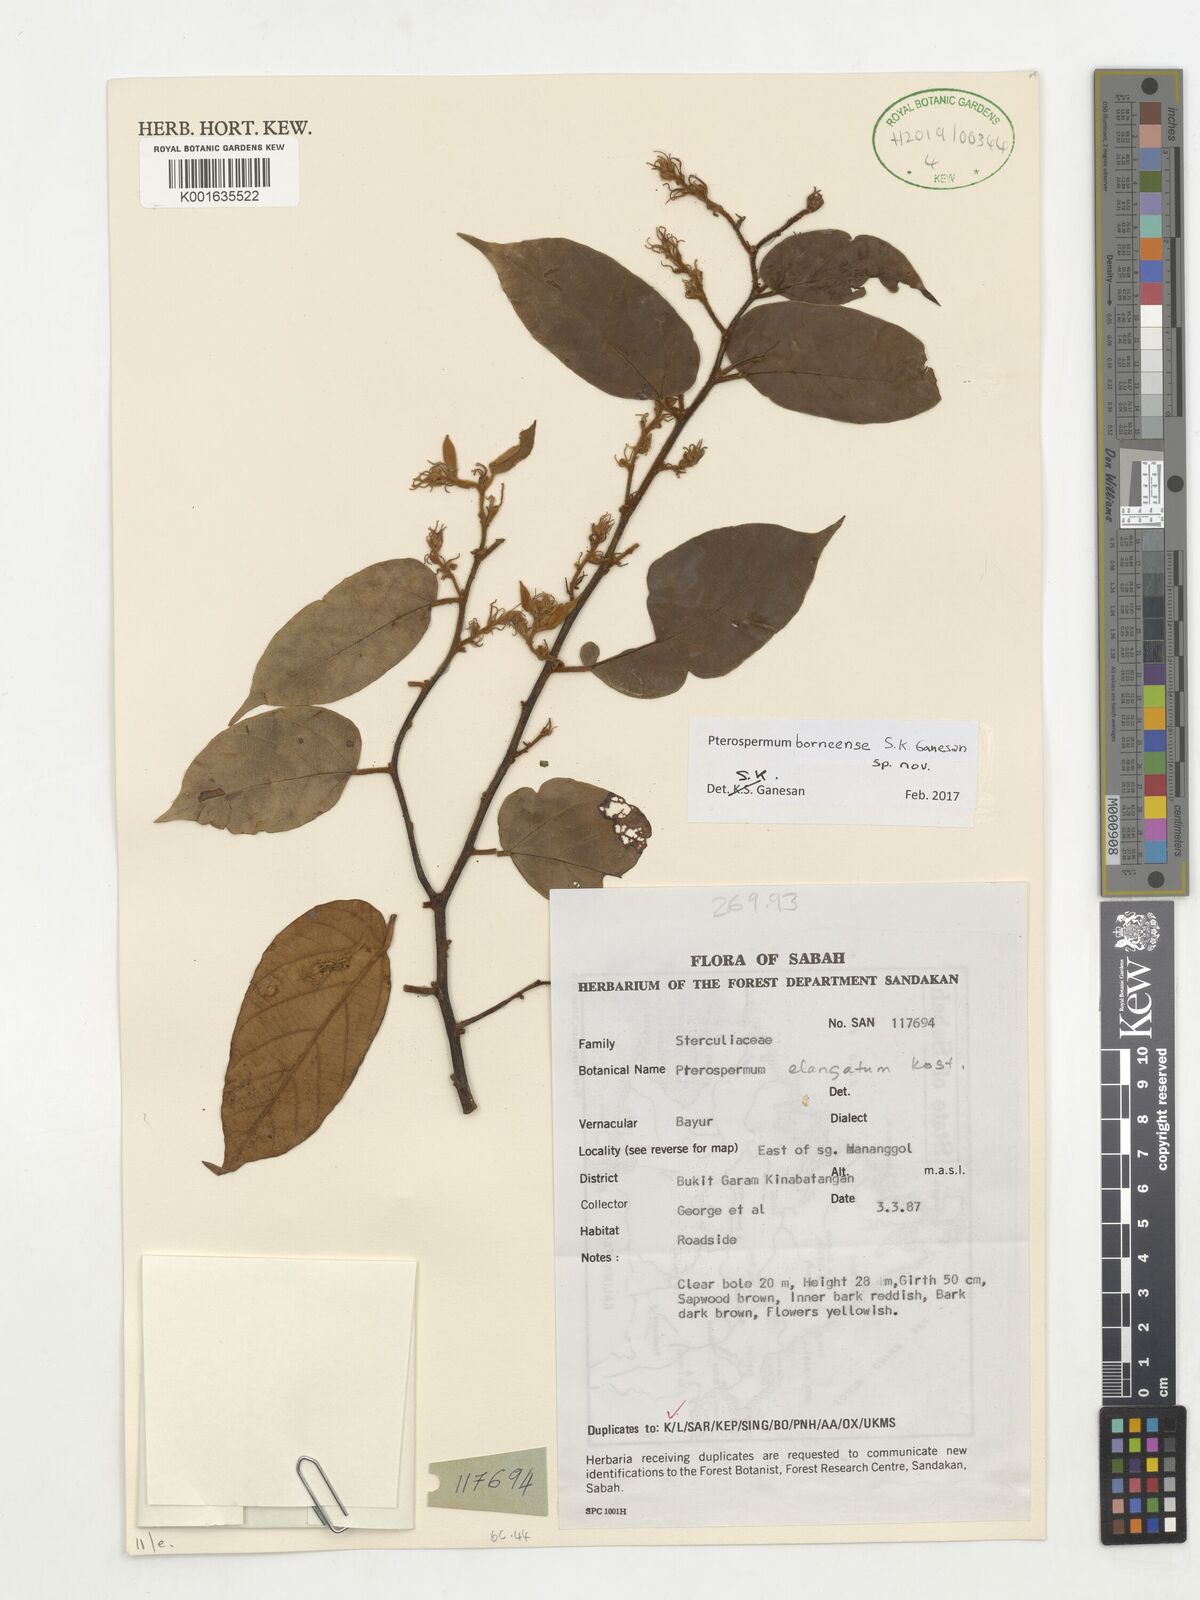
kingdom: Plantae
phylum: Tracheophyta
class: Magnoliopsida
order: Malvales
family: Malvaceae
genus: Pterospermum
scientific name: Pterospermum
